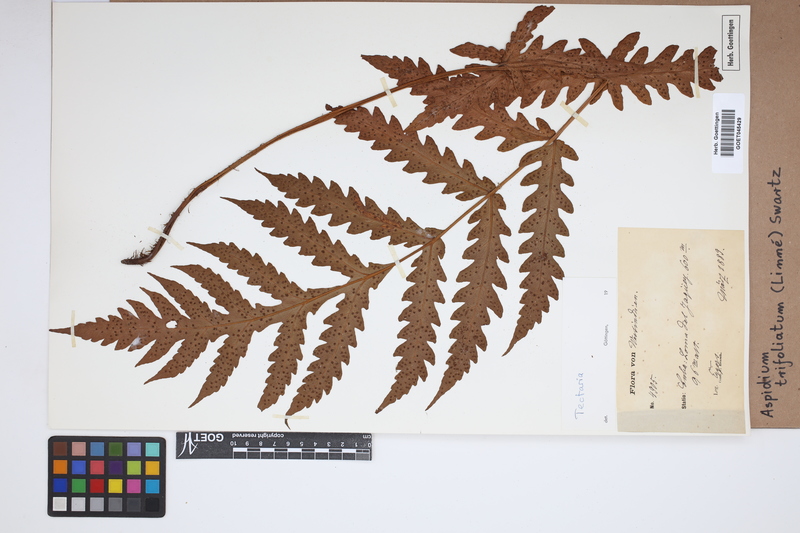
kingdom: Plantae
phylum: Tracheophyta
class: Polypodiopsida
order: Polypodiales
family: Tectariaceae
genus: Tectaria
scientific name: Tectaria trifoliata
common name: Threeleaf halberd fern
